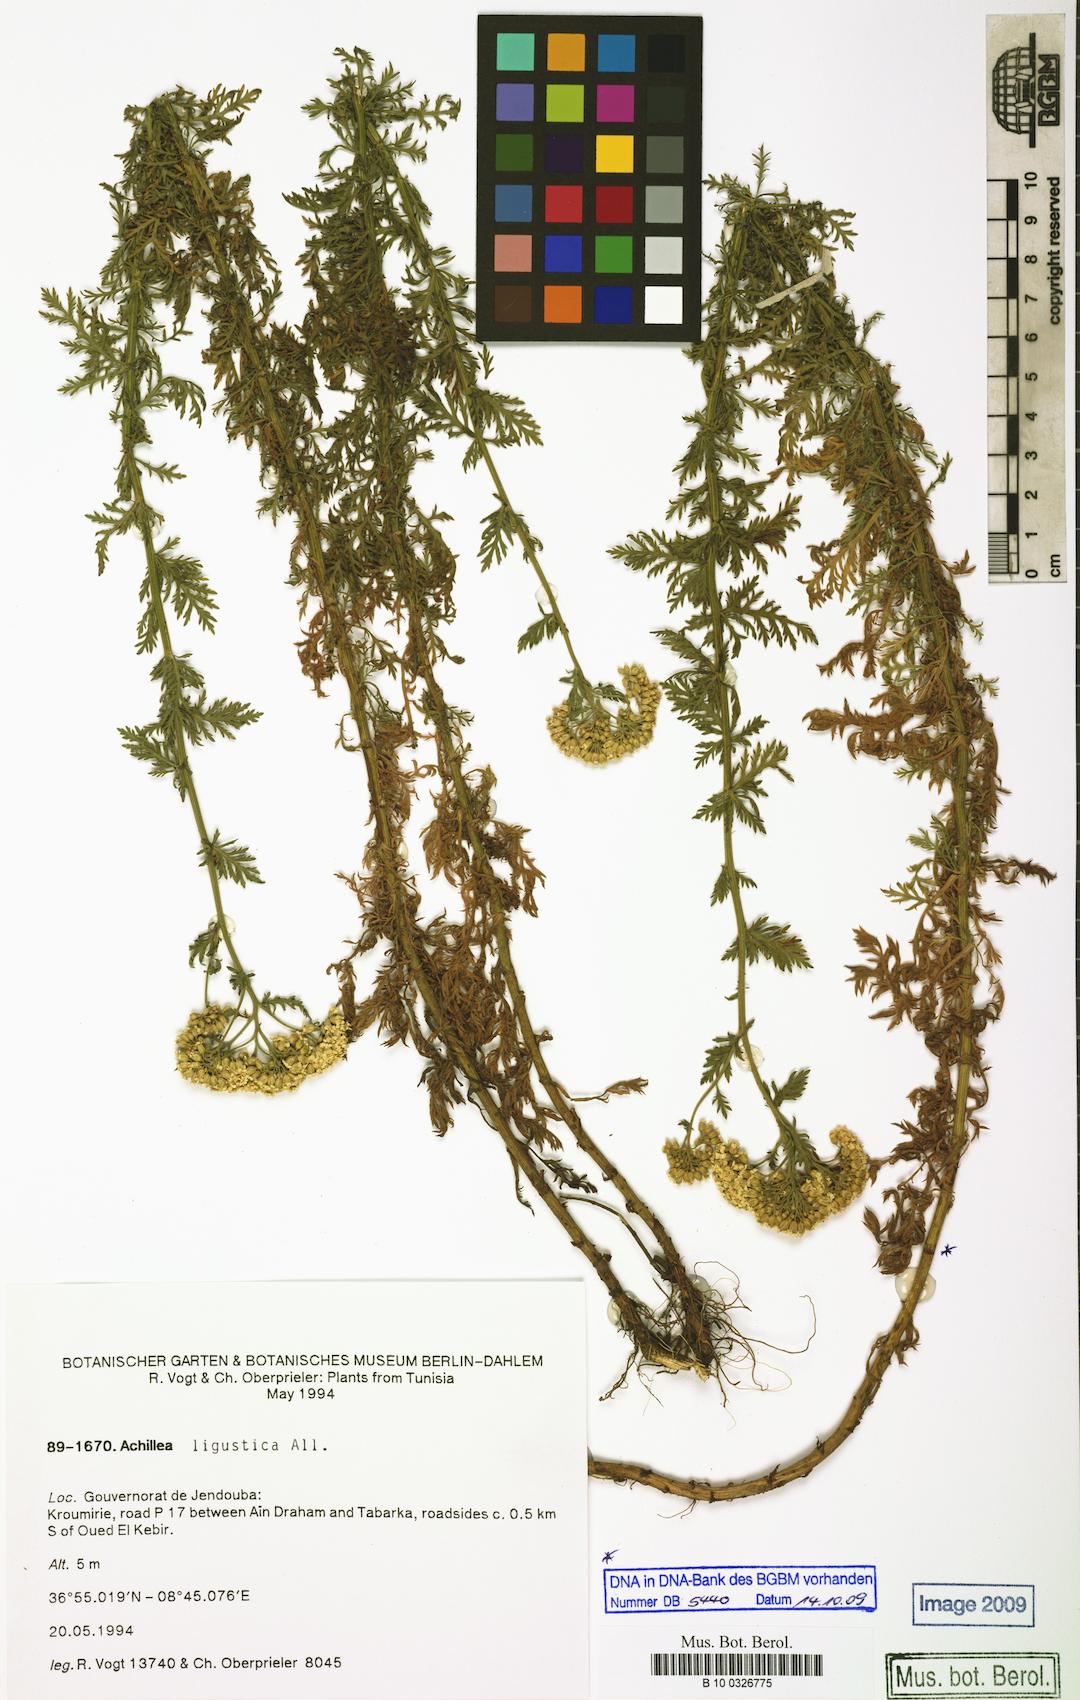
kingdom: Plantae
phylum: Tracheophyta
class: Magnoliopsida
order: Asterales
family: Asteraceae
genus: Achillea
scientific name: Achillea ligustica
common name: Southern yarrow
